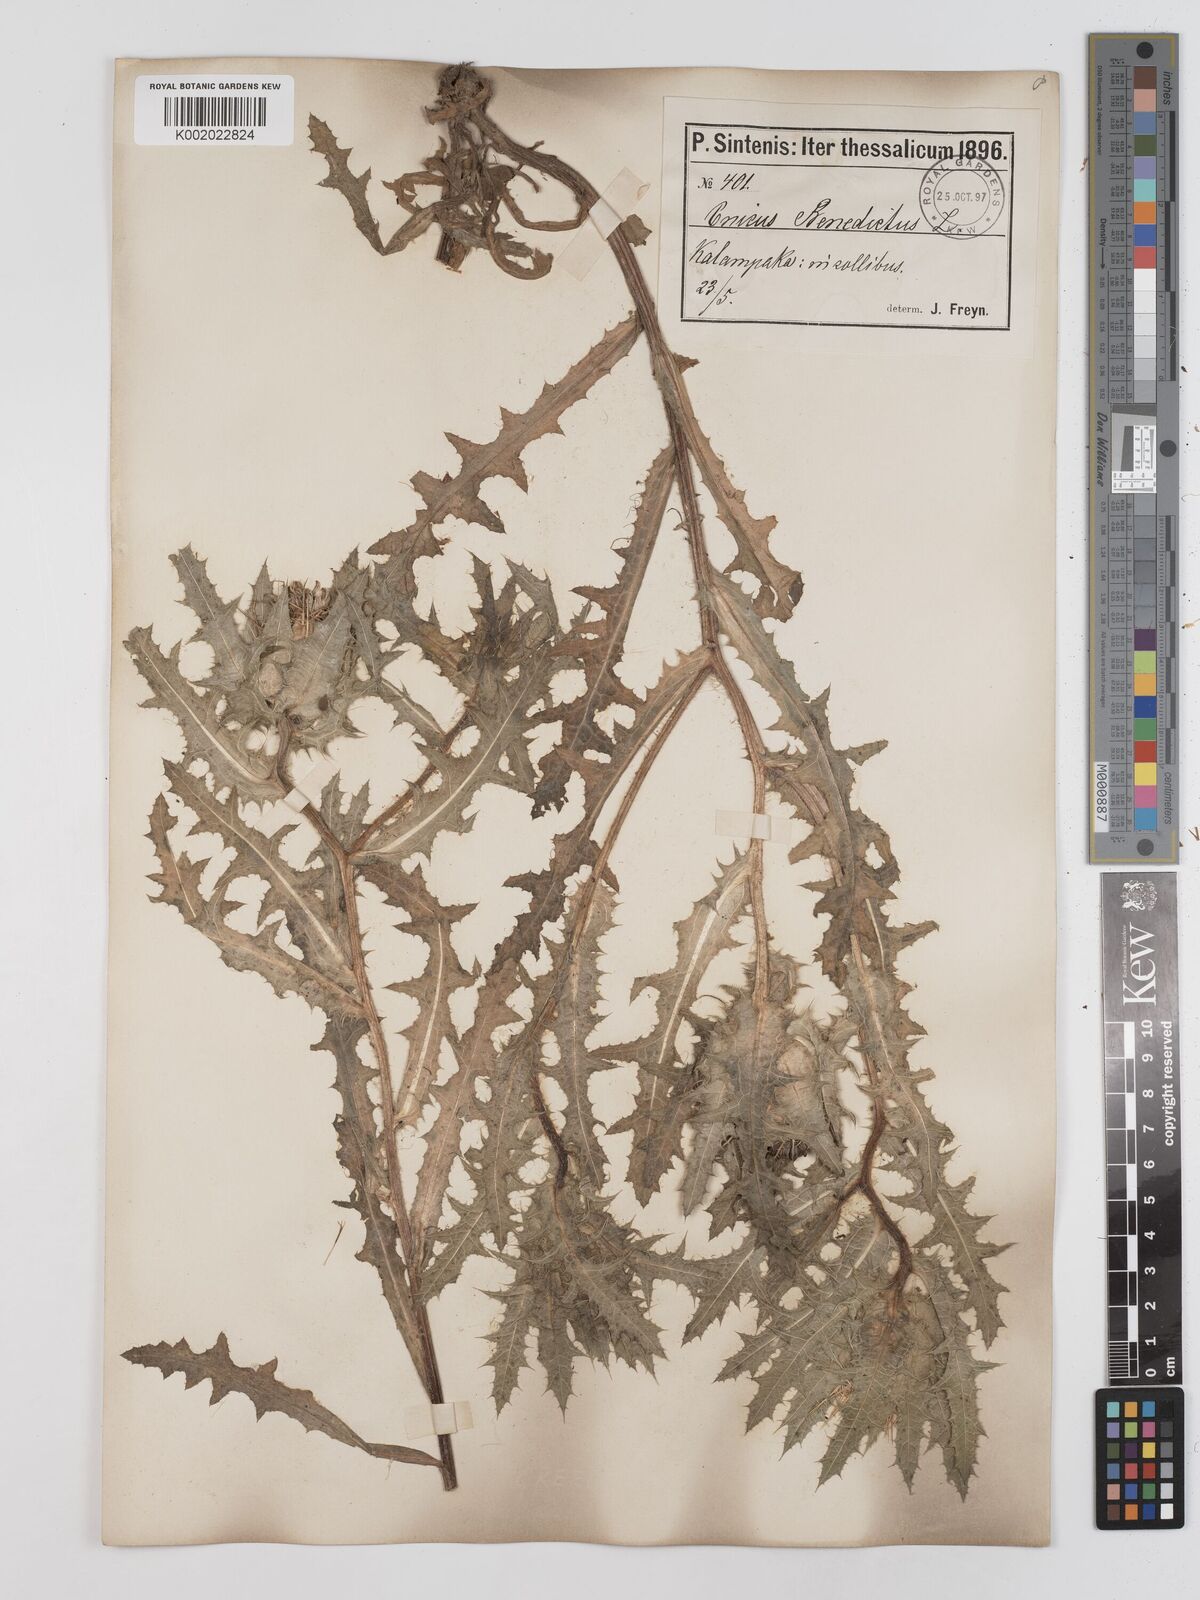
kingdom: Plantae
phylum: Tracheophyta
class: Magnoliopsida
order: Asterales
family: Asteraceae
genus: Centaurea
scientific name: Centaurea benedicta
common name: Blessed thistle
